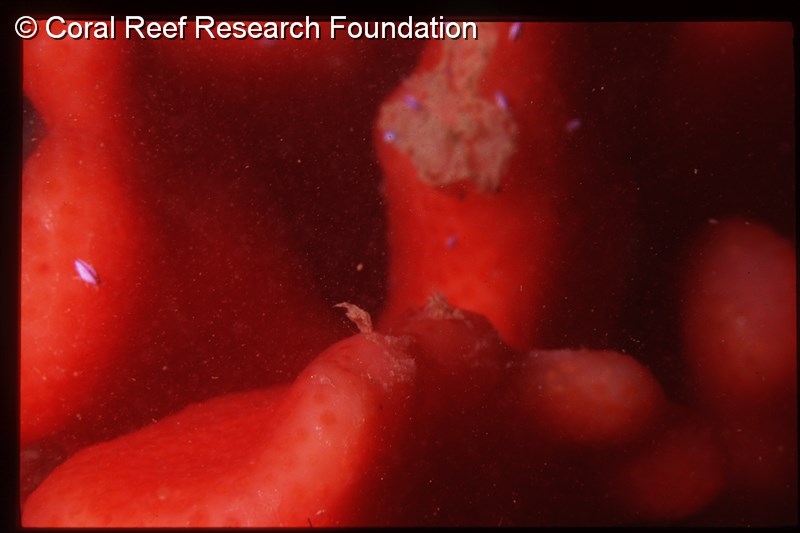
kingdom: Animalia
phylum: Chordata
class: Ascidiacea
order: Aplousobranchia
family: Pseudodistomidae
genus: Pseudodistoma
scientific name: Pseudodistoma
